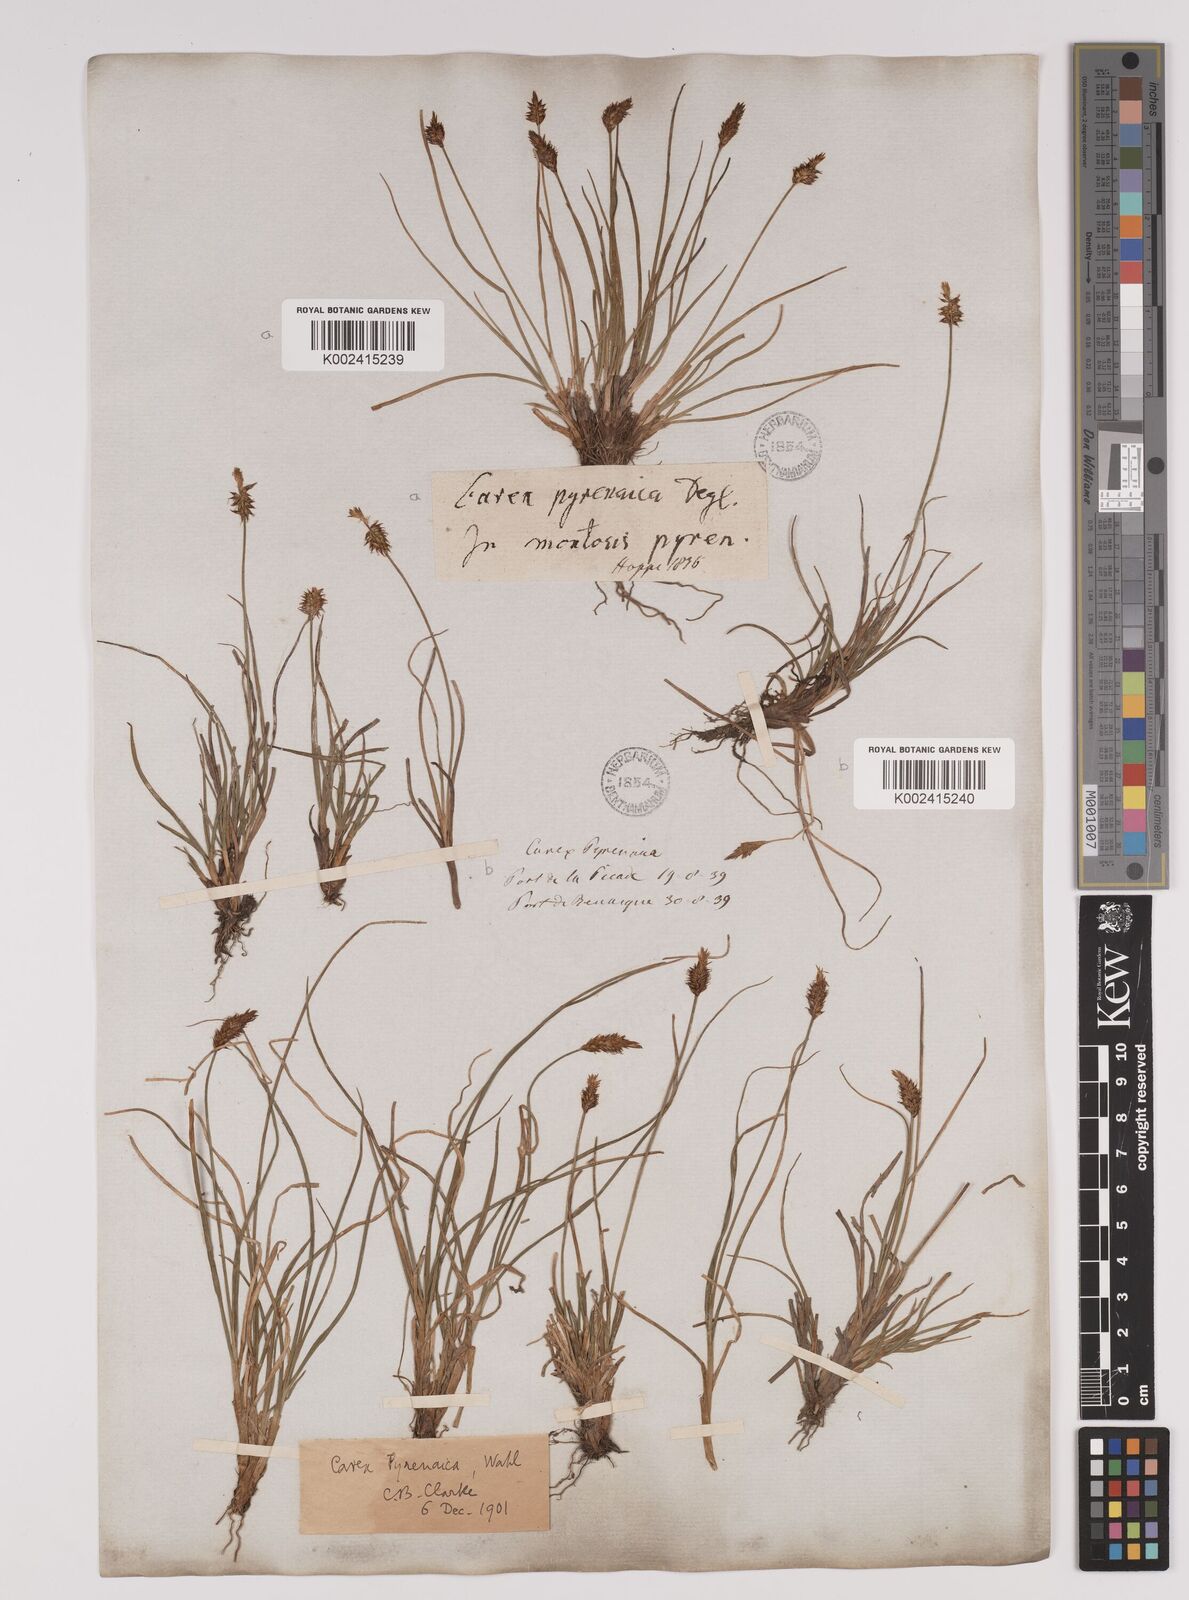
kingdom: Plantae
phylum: Tracheophyta
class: Liliopsida
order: Poales
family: Cyperaceae
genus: Carex
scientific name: Carex acicularis
